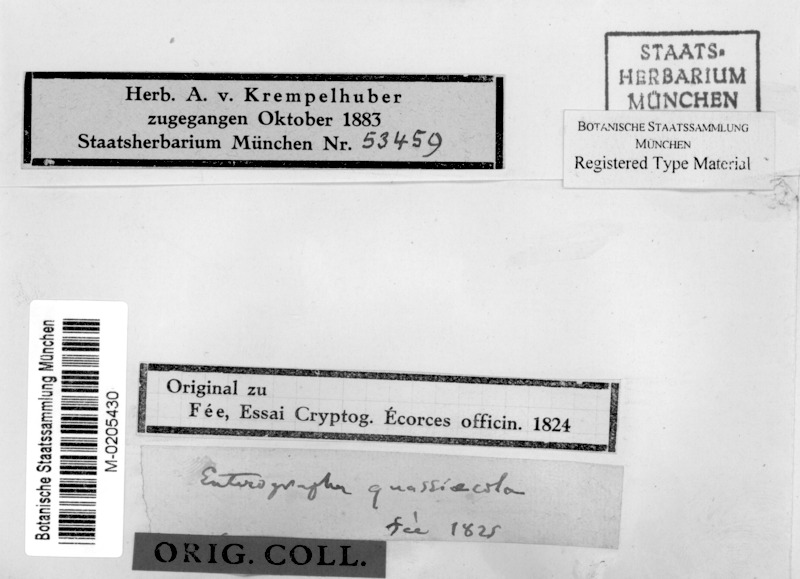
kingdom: Fungi
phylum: Ascomycota
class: Arthoniomycetes
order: Arthoniales
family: Roccellaceae
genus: Enterographa
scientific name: Enterographa quassiicola
